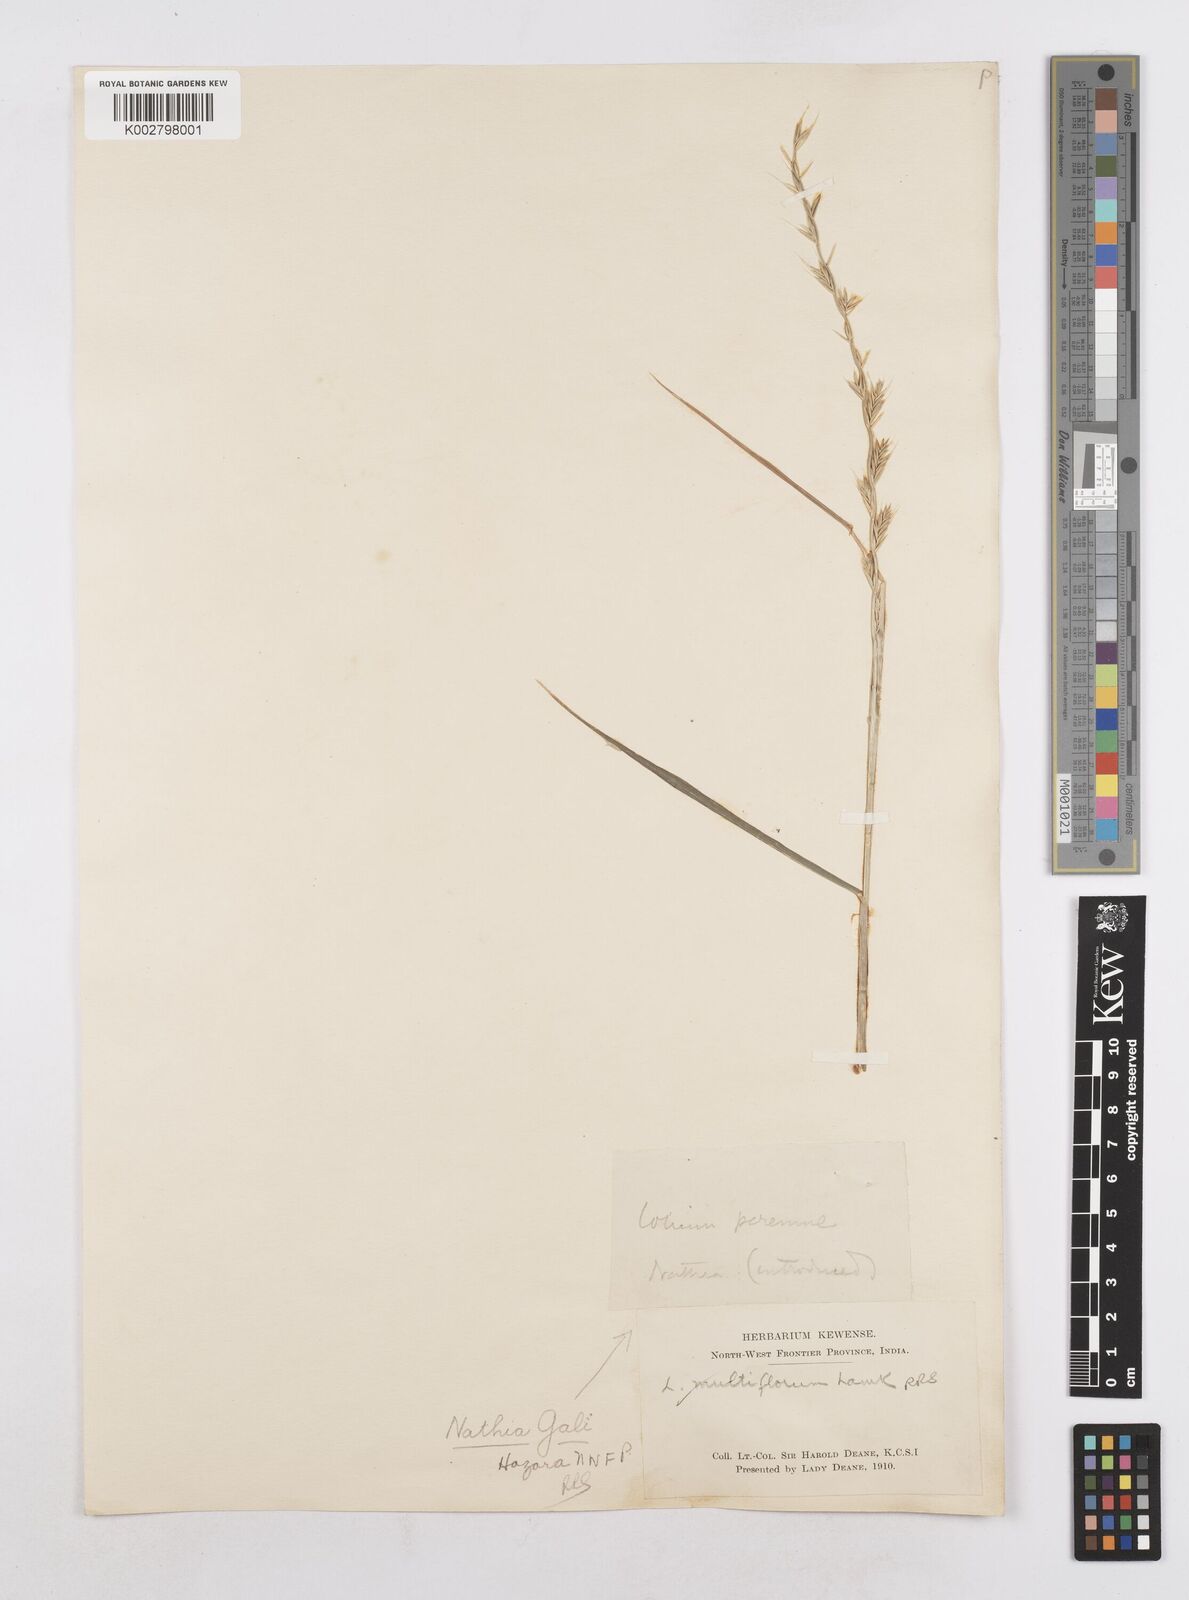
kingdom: Plantae
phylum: Tracheophyta
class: Liliopsida
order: Poales
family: Poaceae
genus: Lolium
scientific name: Lolium multiflorum
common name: Annual ryegrass
